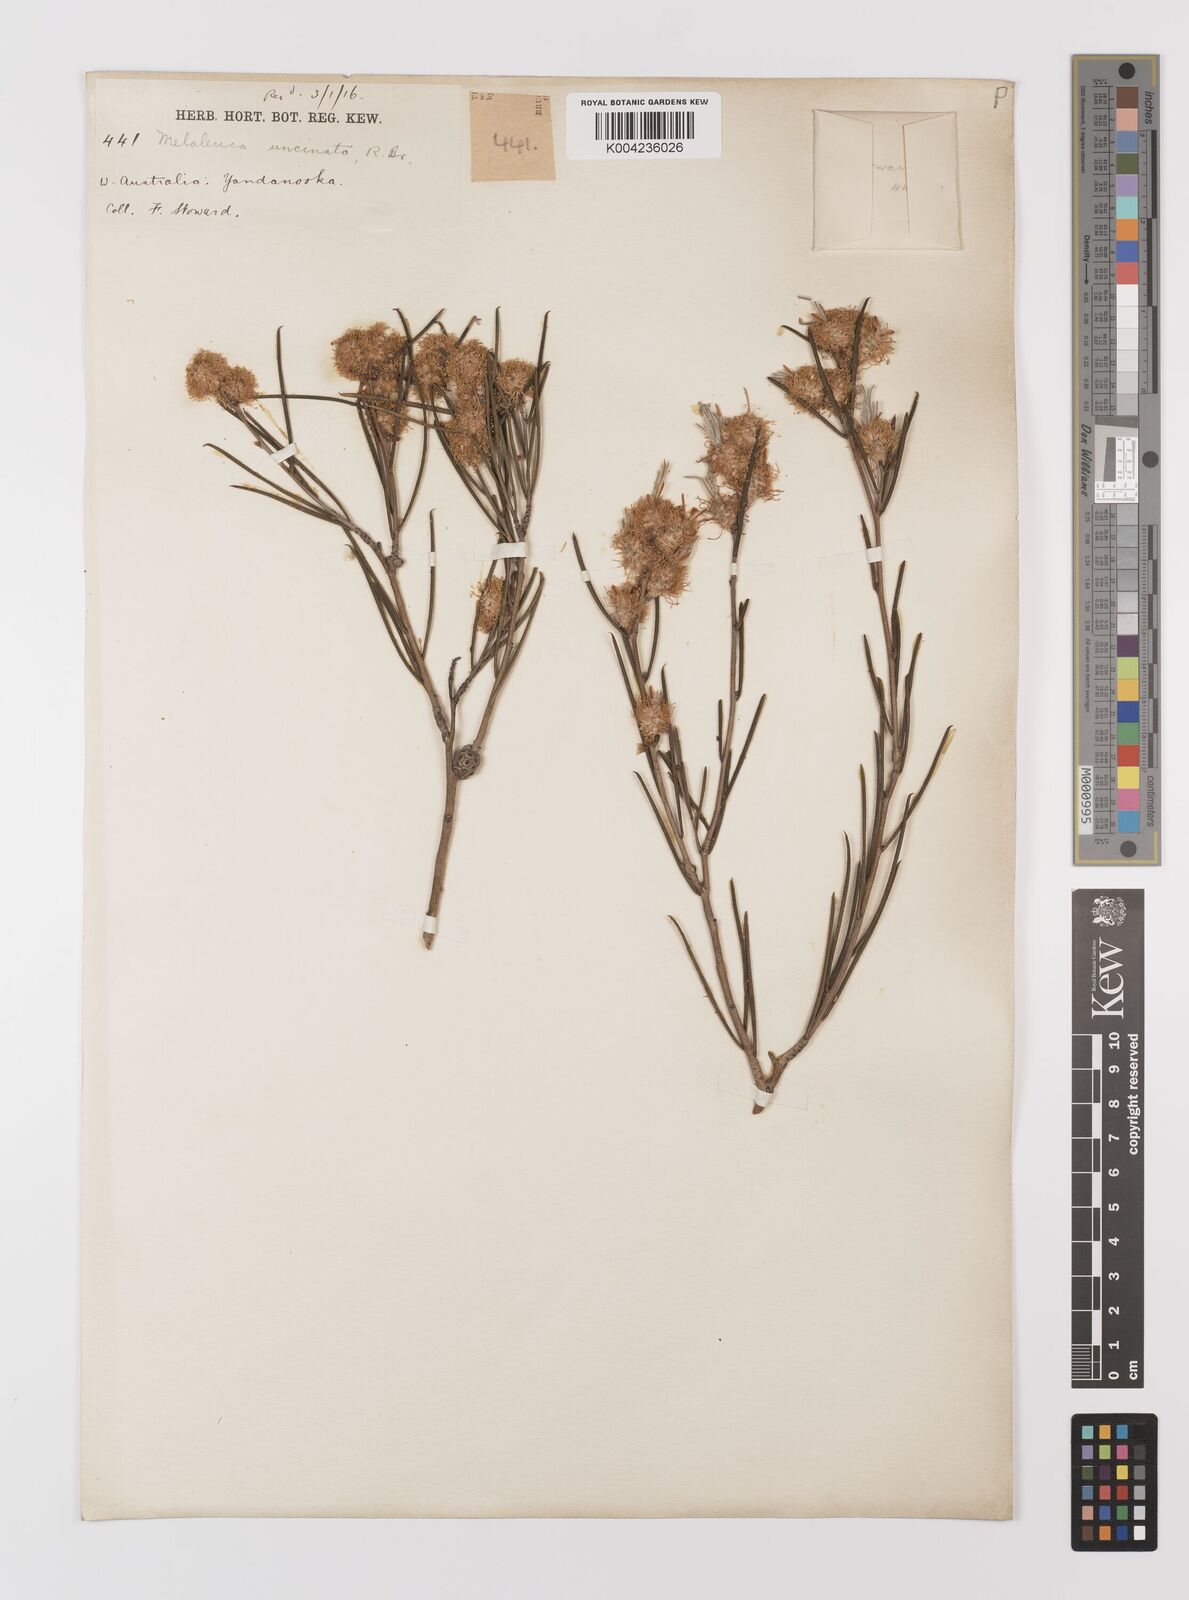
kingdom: Plantae
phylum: Tracheophyta
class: Magnoliopsida
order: Myrtales
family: Myrtaceae
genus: Melaleuca
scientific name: Melaleuca uncinata
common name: Broom honey myrtle
